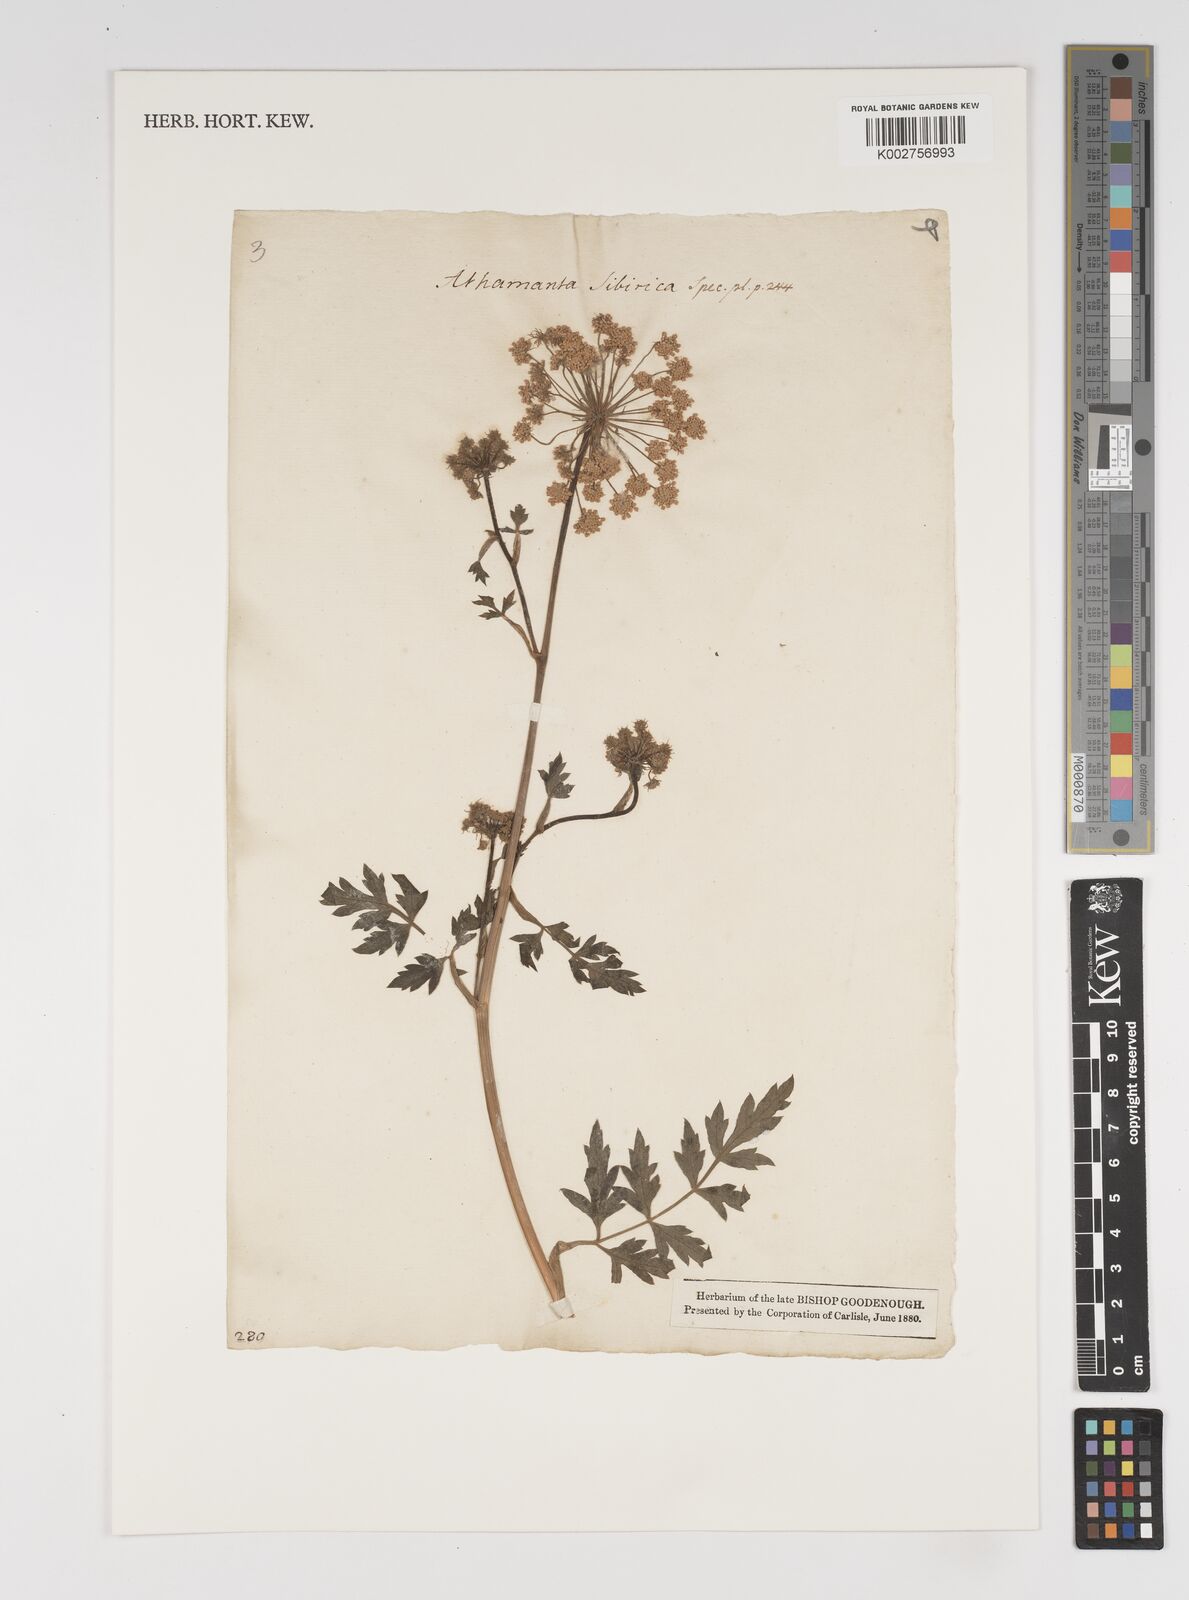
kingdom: Plantae
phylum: Tracheophyta
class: Magnoliopsida
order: Apiales
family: Apiaceae
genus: Seseli
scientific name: Seseli libanotis
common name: Mooncarrot
